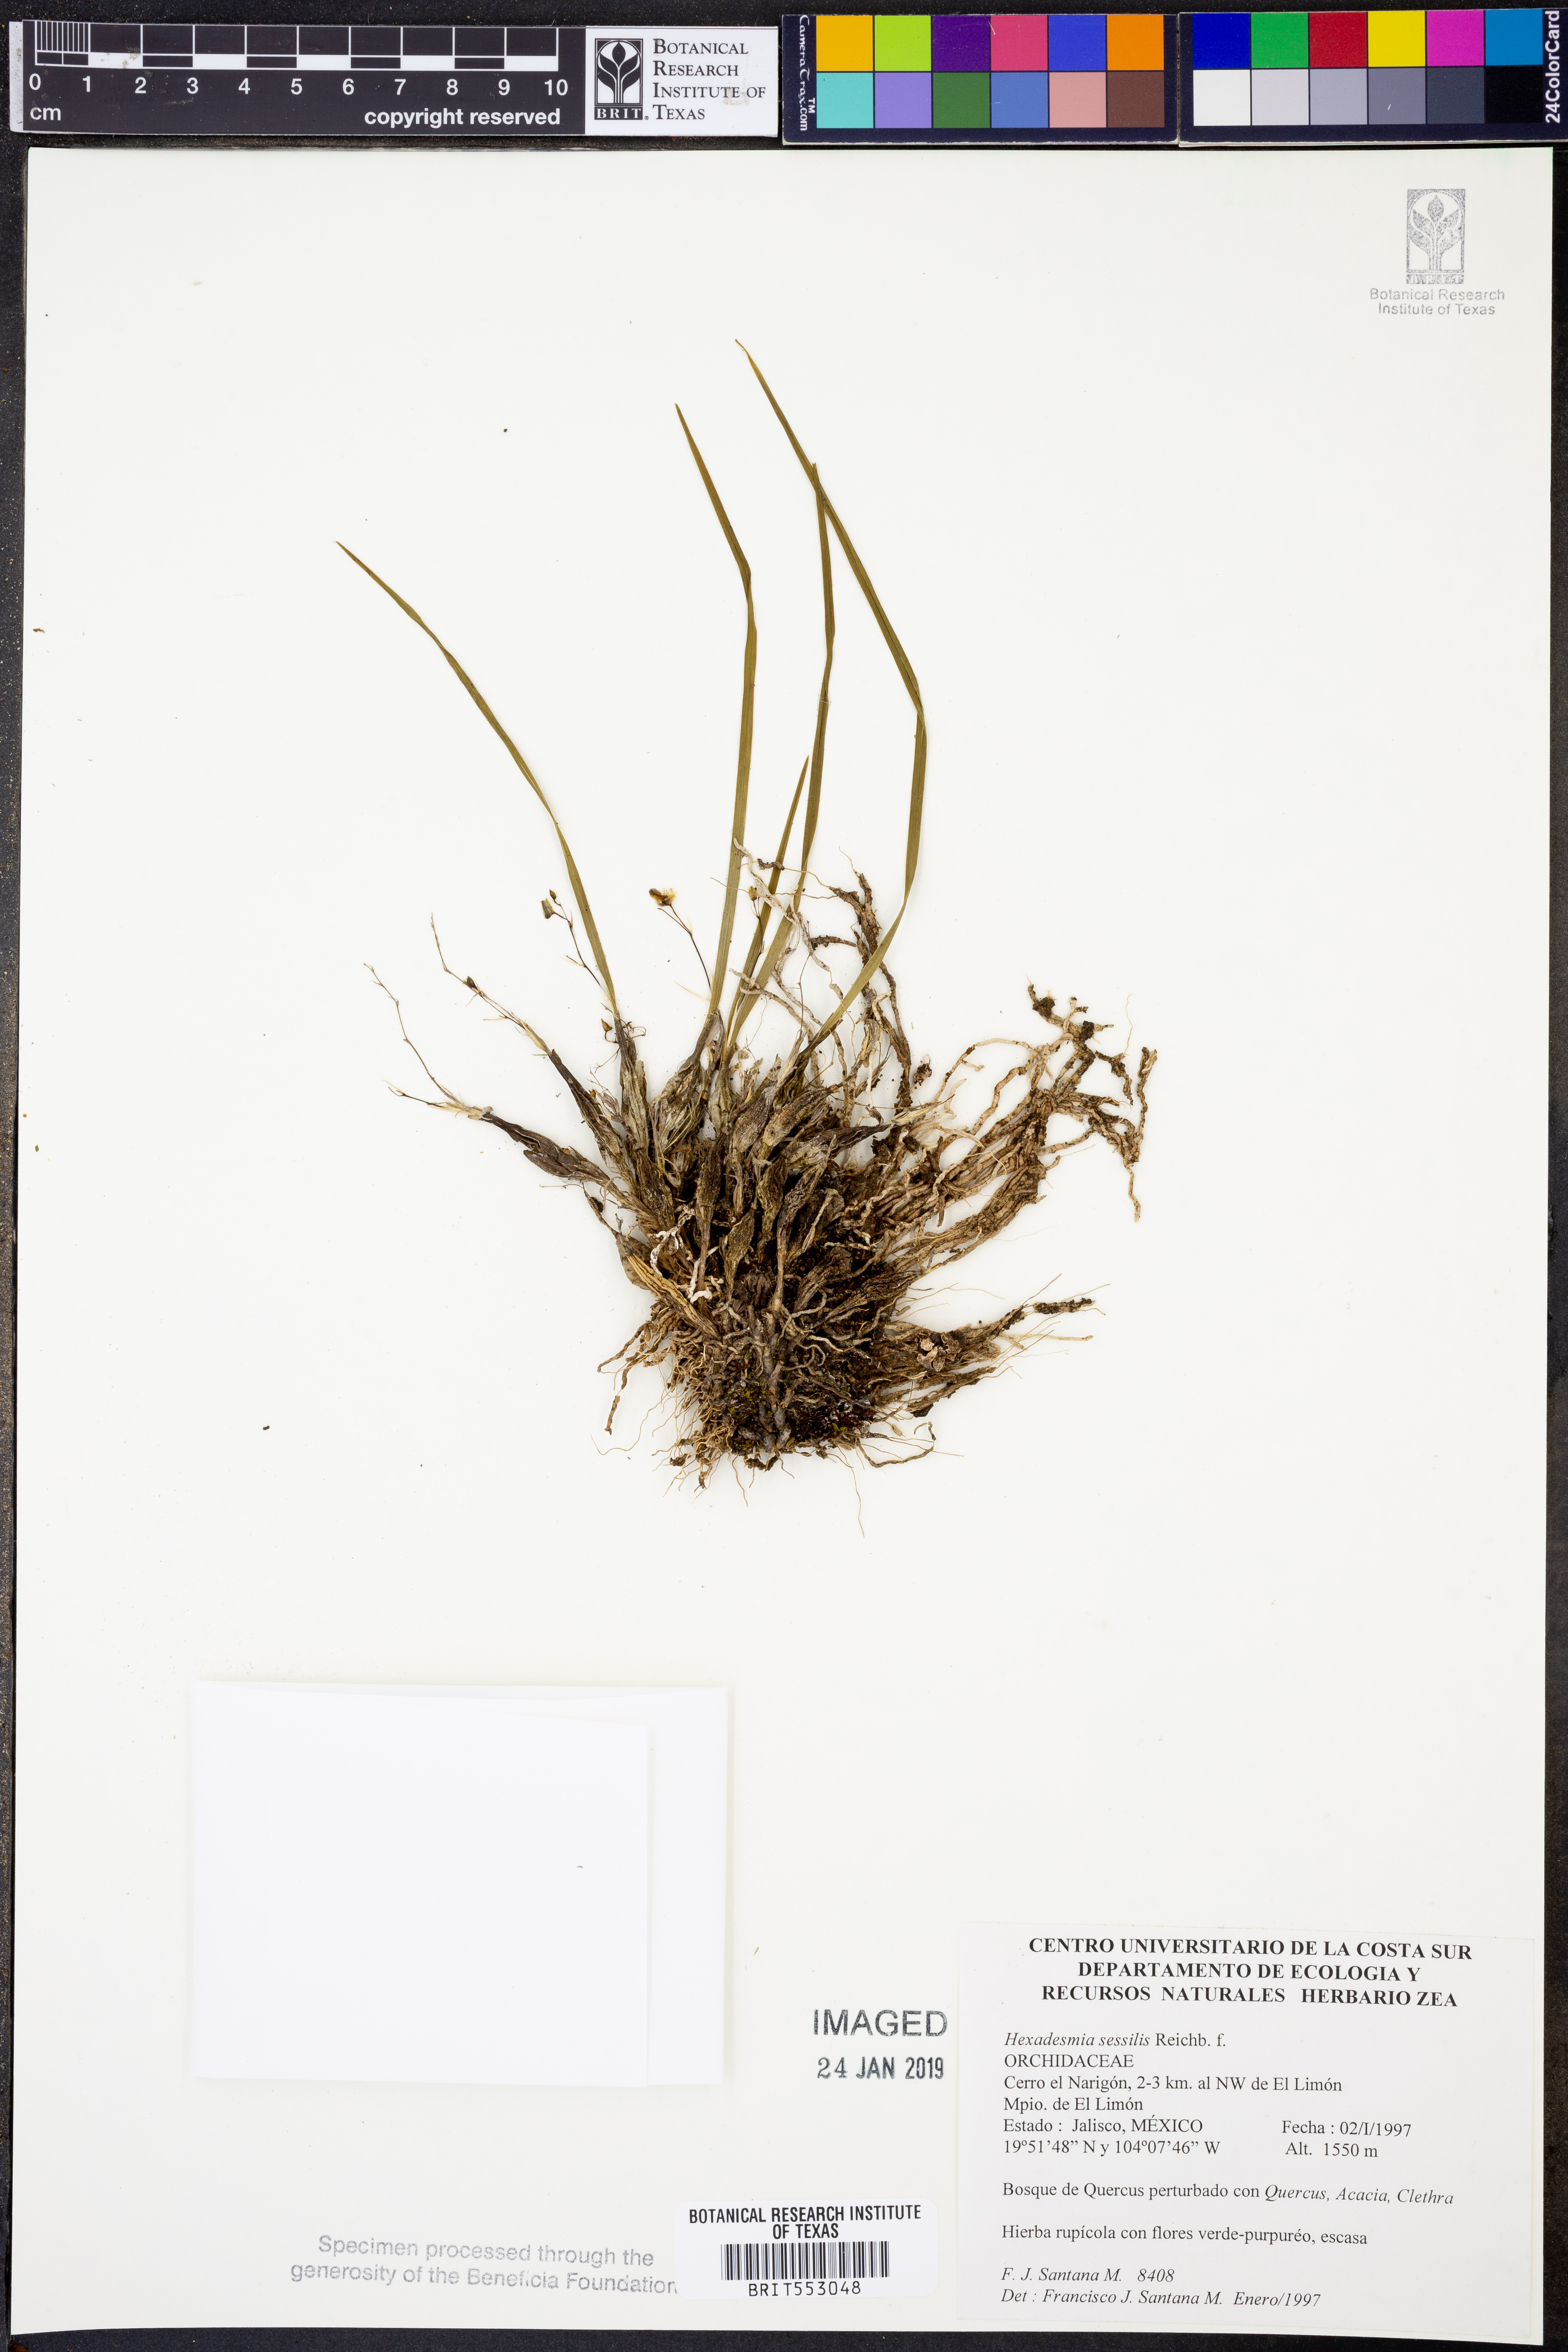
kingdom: Plantae
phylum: Tracheophyta
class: Liliopsida
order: Asparagales
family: Orchidaceae
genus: Scaphyglottis
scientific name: Scaphyglottis livida
